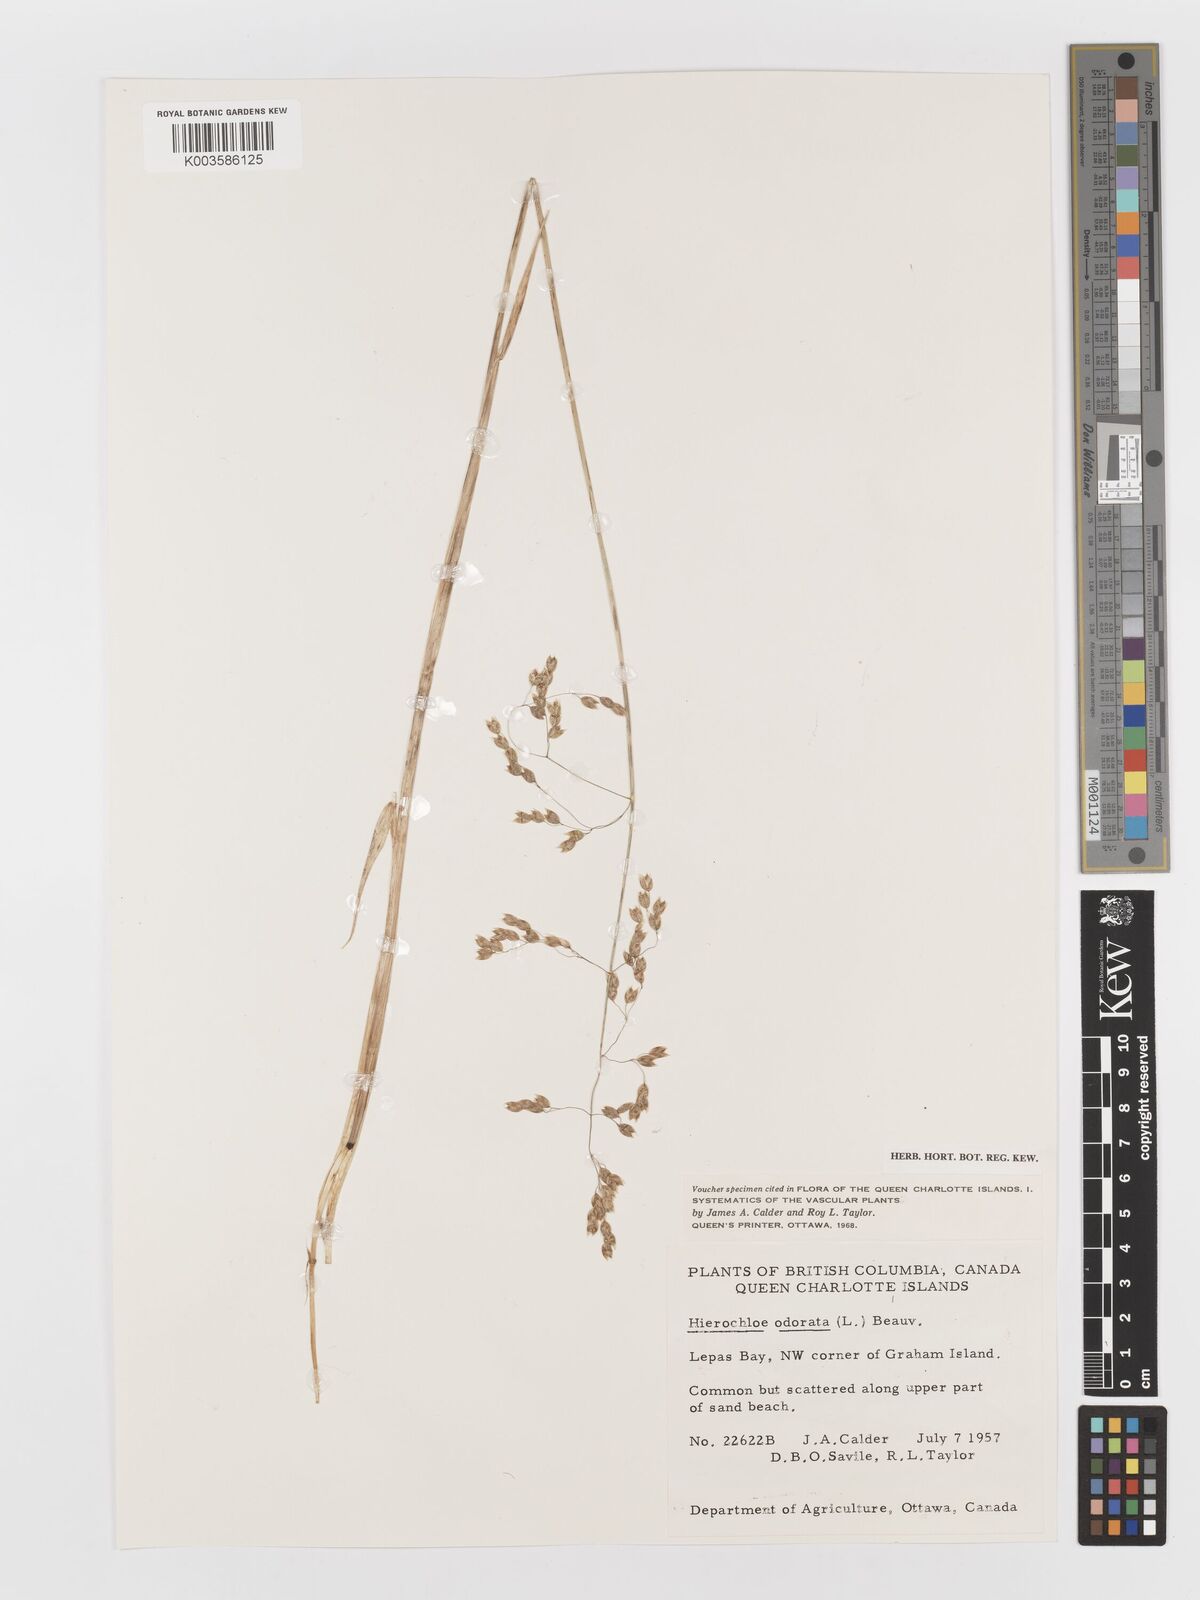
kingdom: Plantae
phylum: Tracheophyta
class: Liliopsida
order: Poales
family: Poaceae
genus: Anthoxanthum
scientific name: Anthoxanthum nitens
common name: Holy grass
